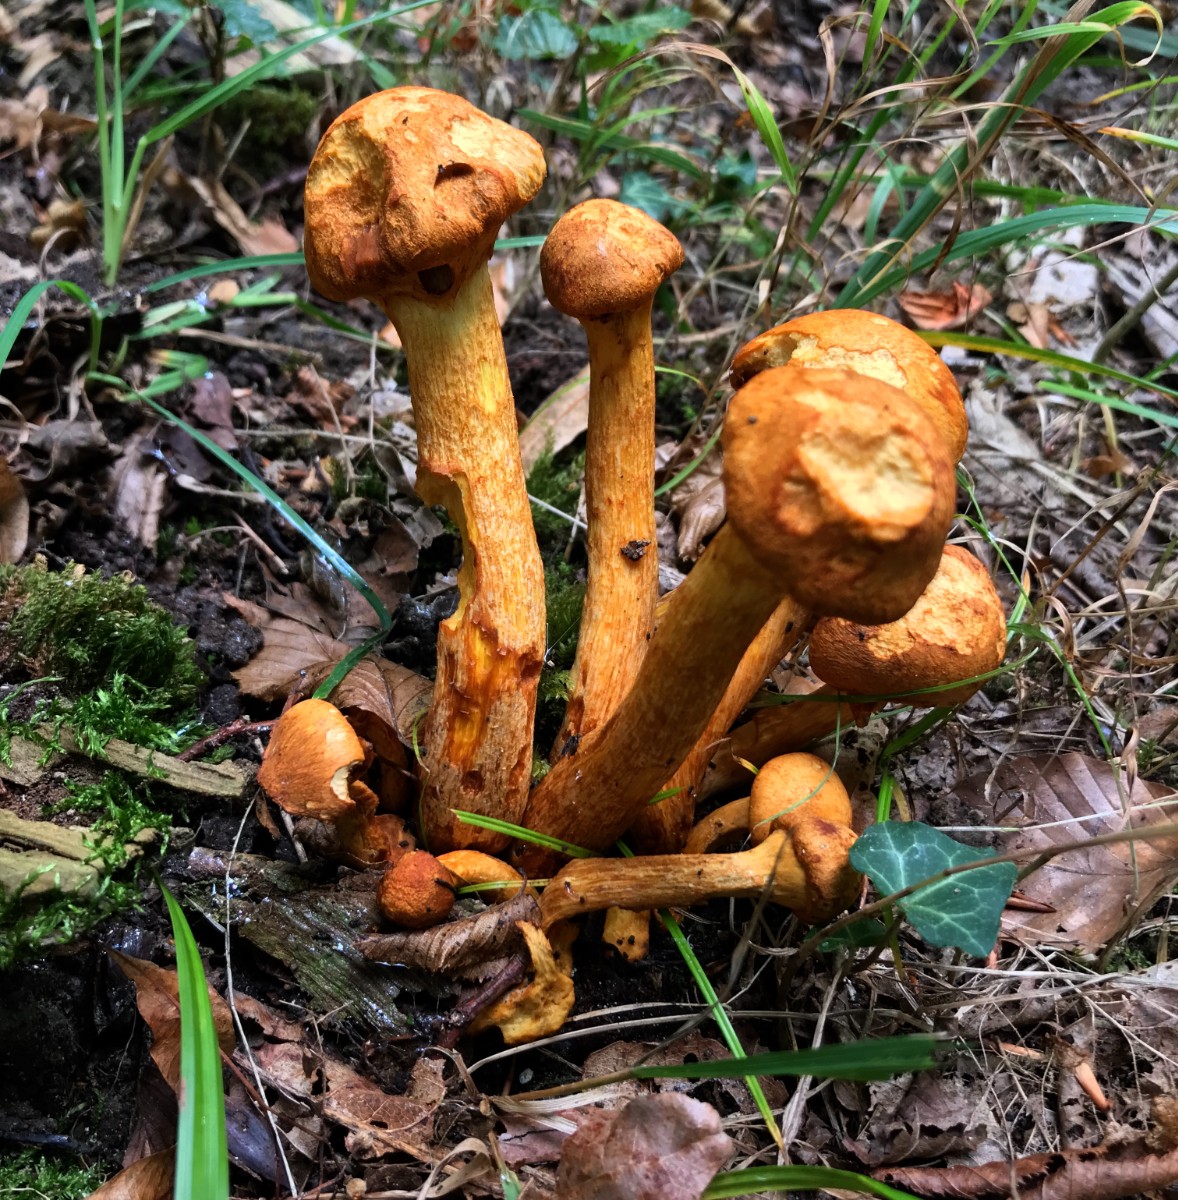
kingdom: Fungi
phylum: Basidiomycota
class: Agaricomycetes
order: Agaricales
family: Hymenogastraceae
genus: Gymnopilus
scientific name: Gymnopilus spectabilis
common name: fibret flammehat
